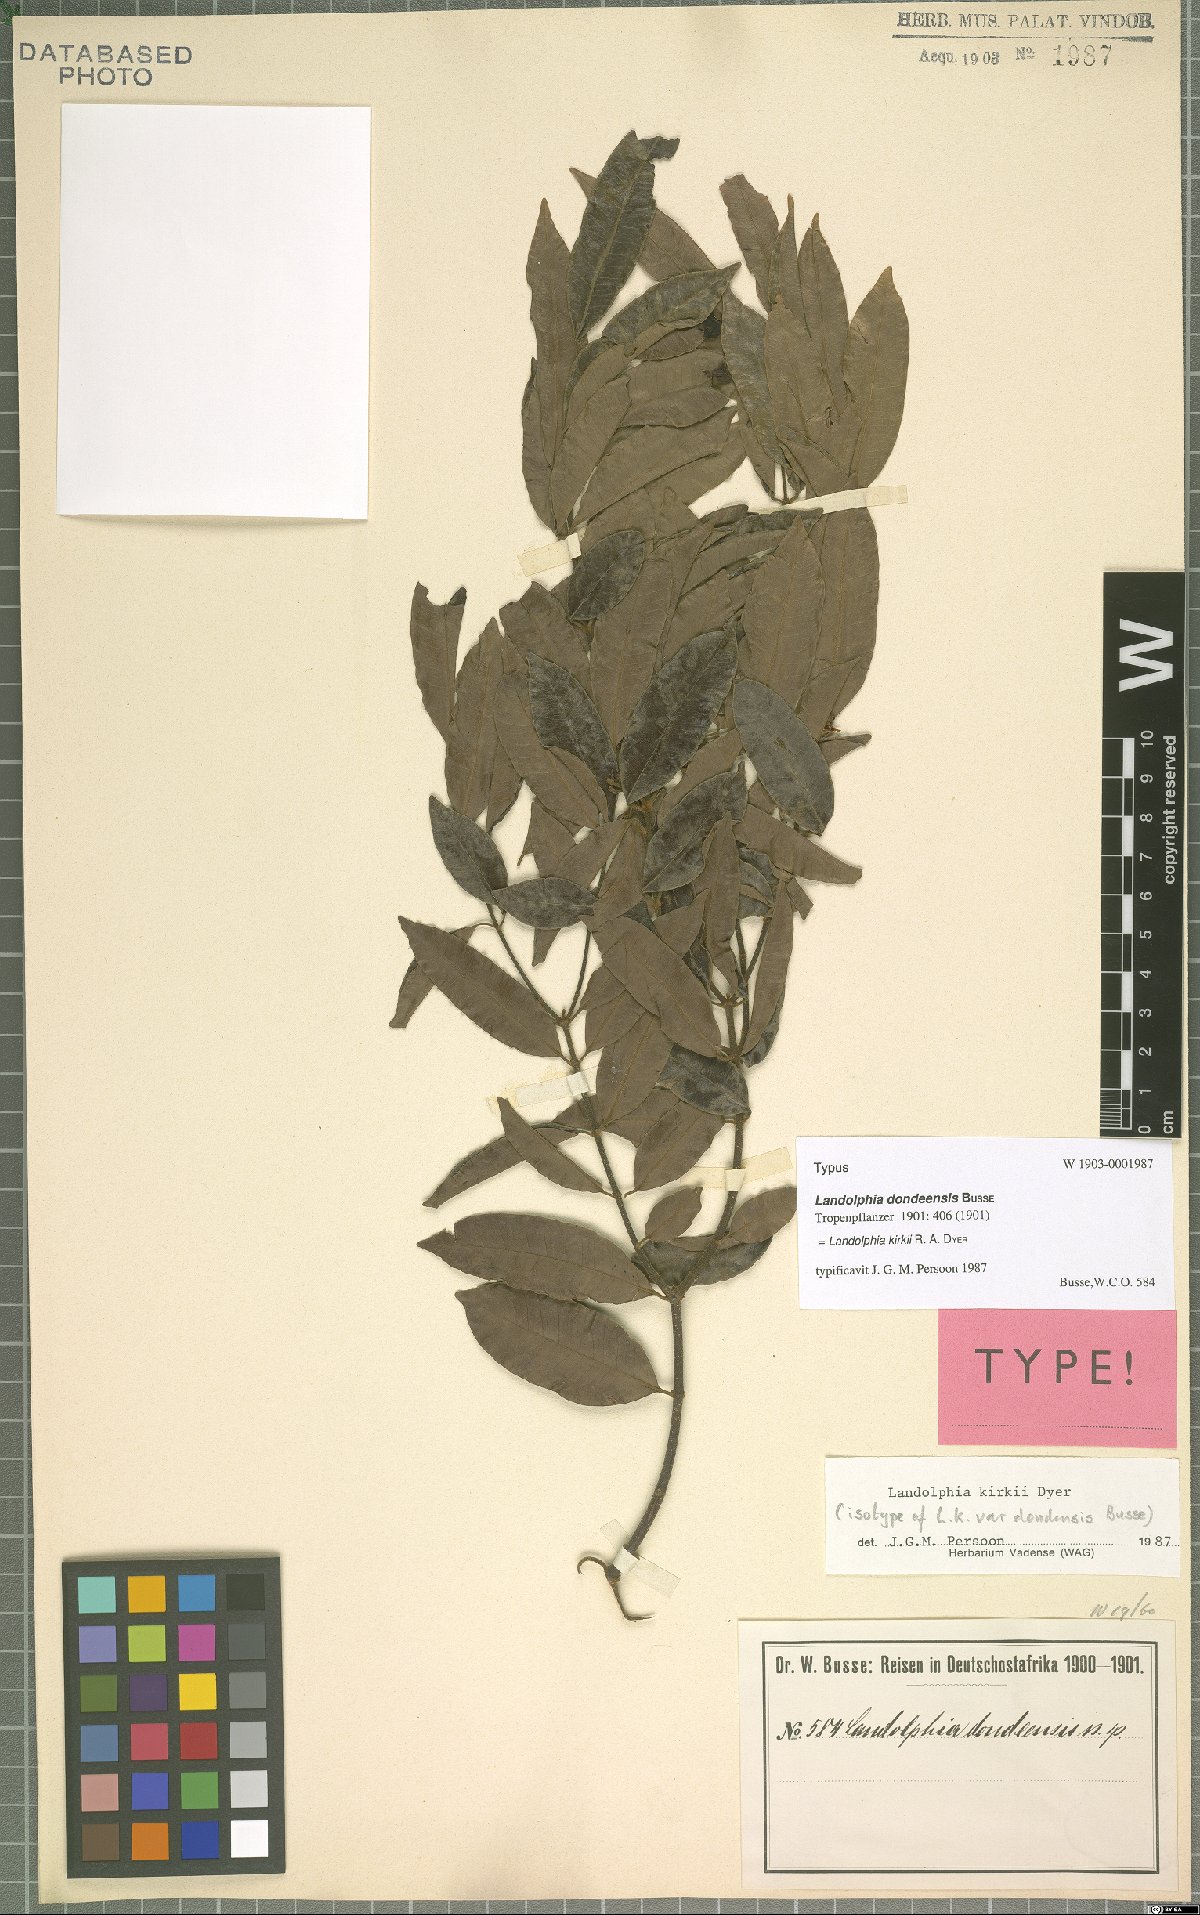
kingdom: Plantae
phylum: Tracheophyta
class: Magnoliopsida
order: Gentianales
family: Apocynaceae
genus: Landolphia
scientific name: Landolphia kirkii
